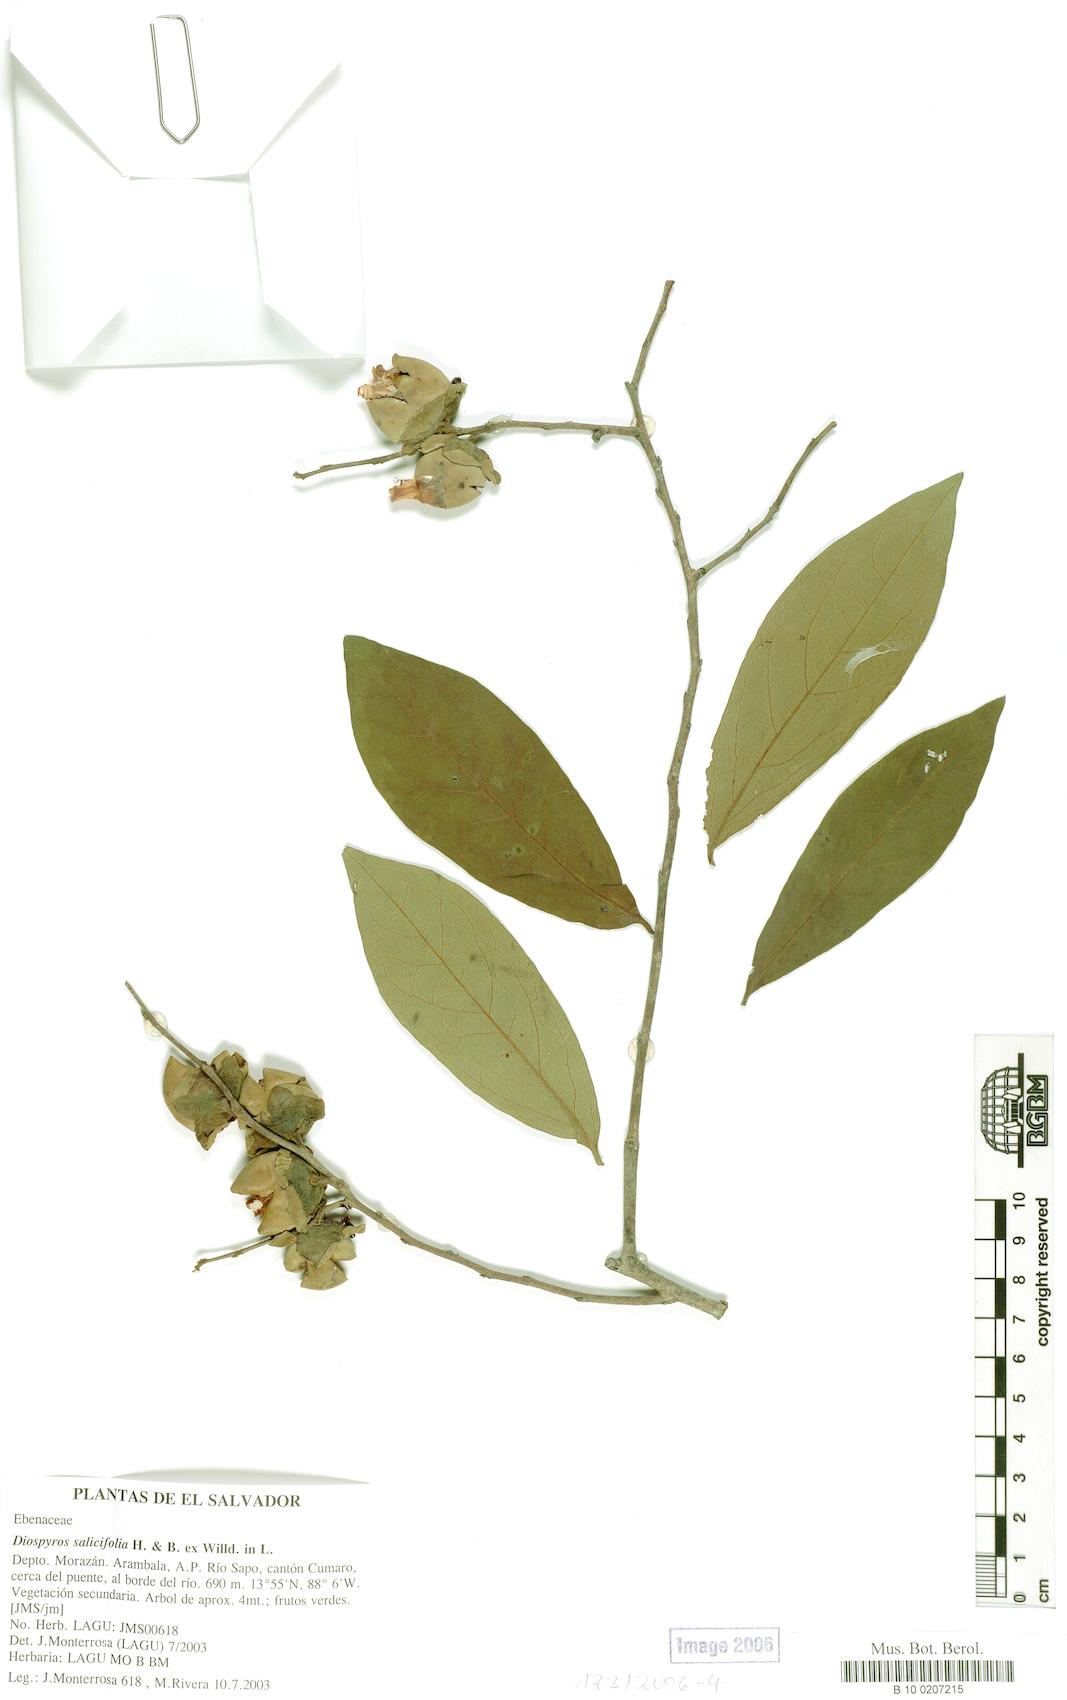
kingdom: Plantae
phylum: Tracheophyta
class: Magnoliopsida
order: Ericales
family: Ebenaceae
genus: Diospyros
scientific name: Diospyros salicifolia
